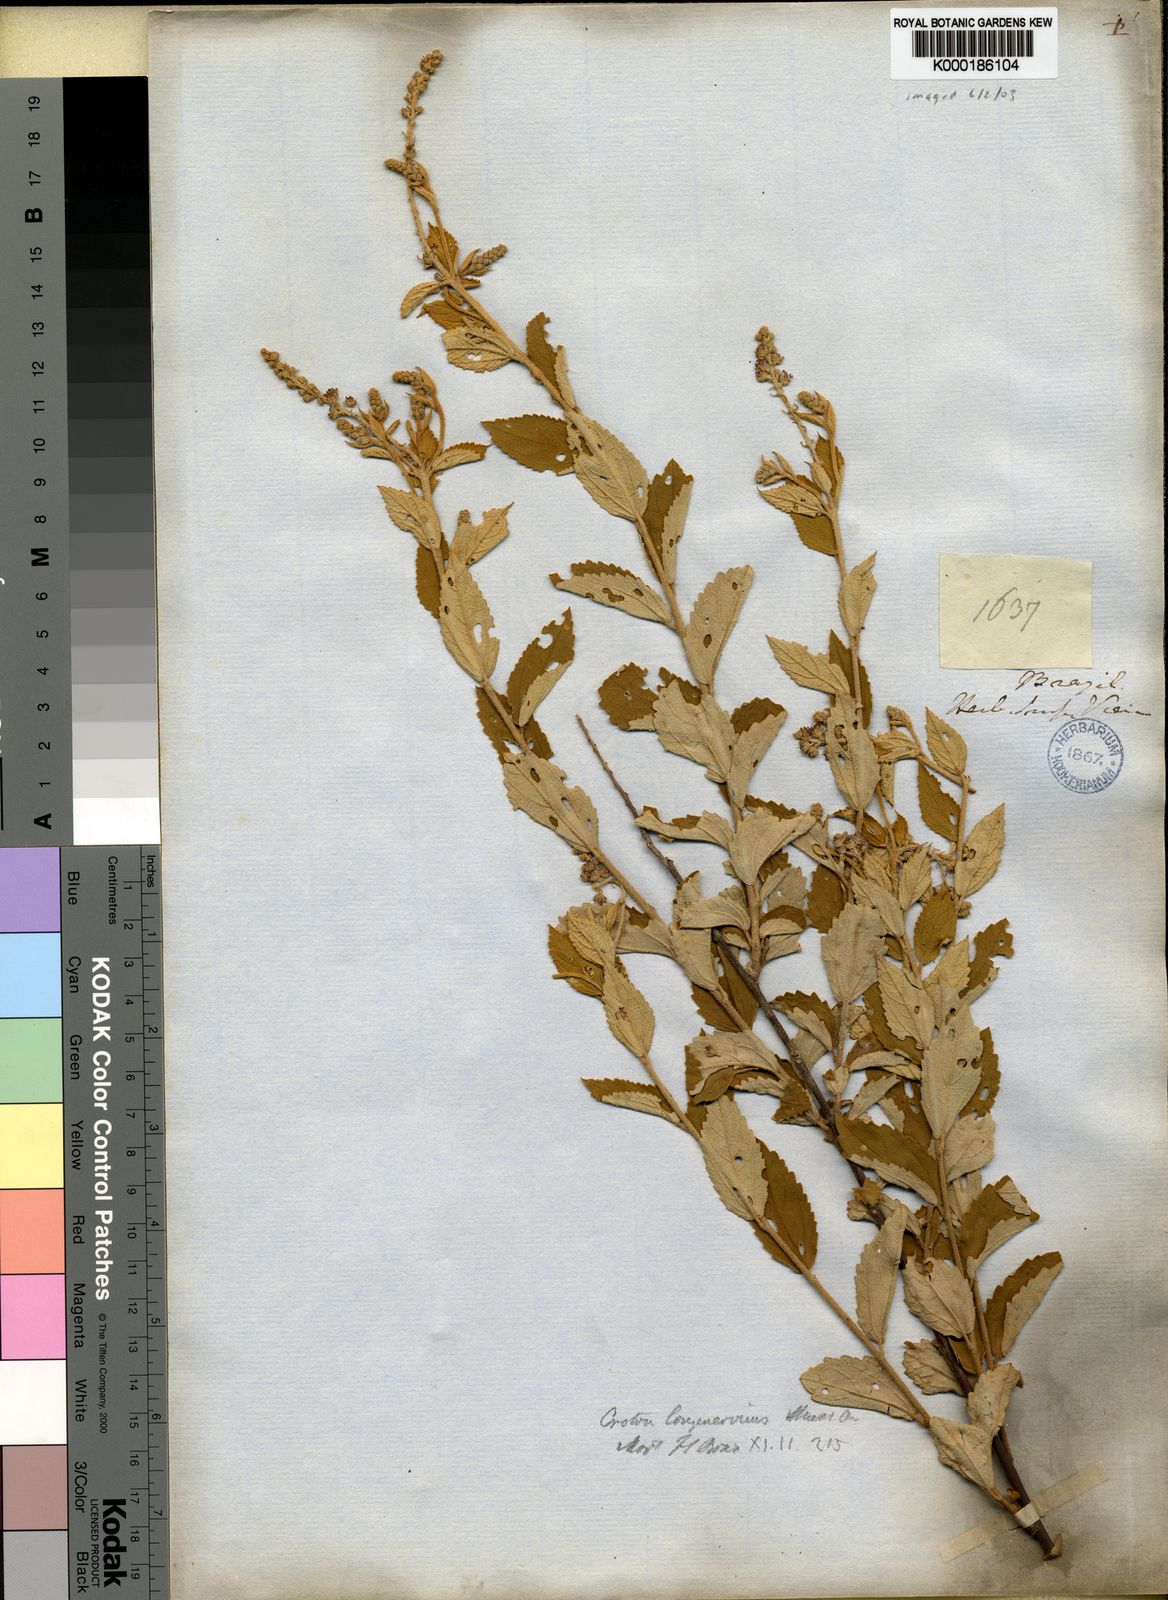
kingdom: Plantae
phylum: Tracheophyta
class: Magnoliopsida
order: Malpighiales
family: Euphorbiaceae
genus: Croton
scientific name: Croton
